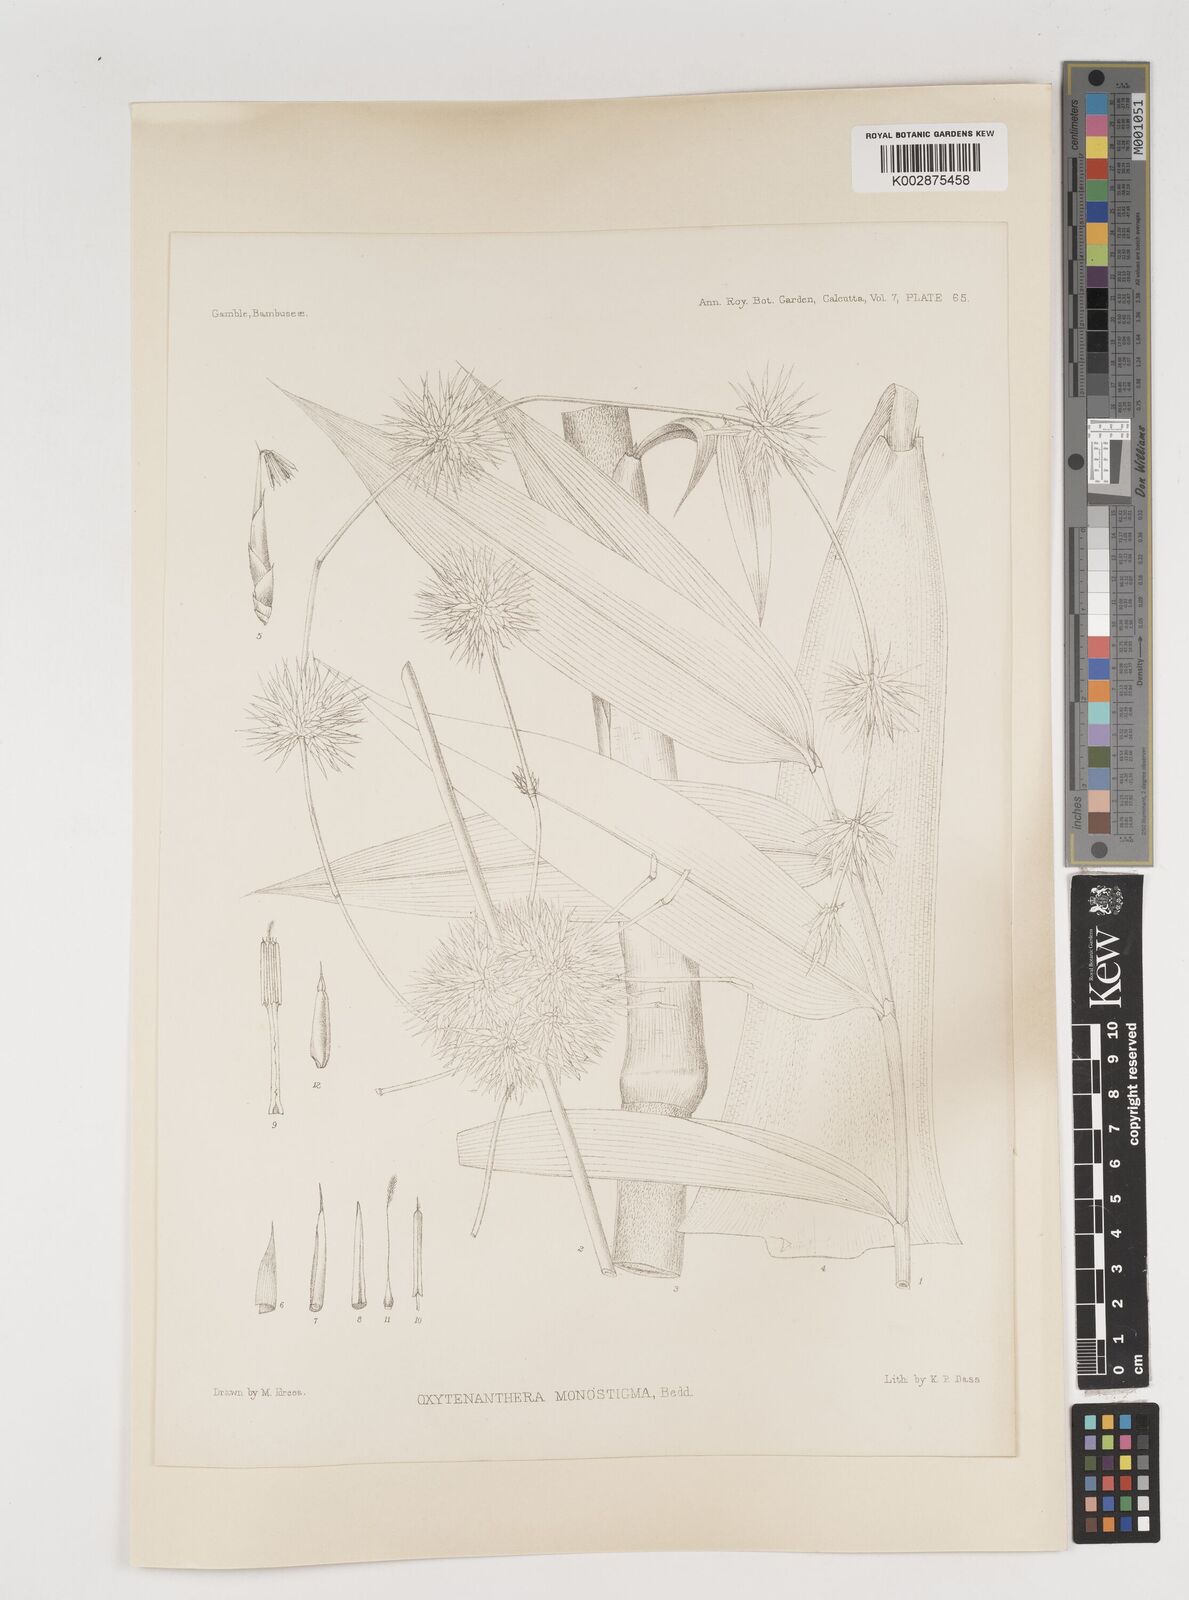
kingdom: Plantae
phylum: Tracheophyta
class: Liliopsida
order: Poales
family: Poaceae
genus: Dendrocalamus
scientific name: Dendrocalamus
